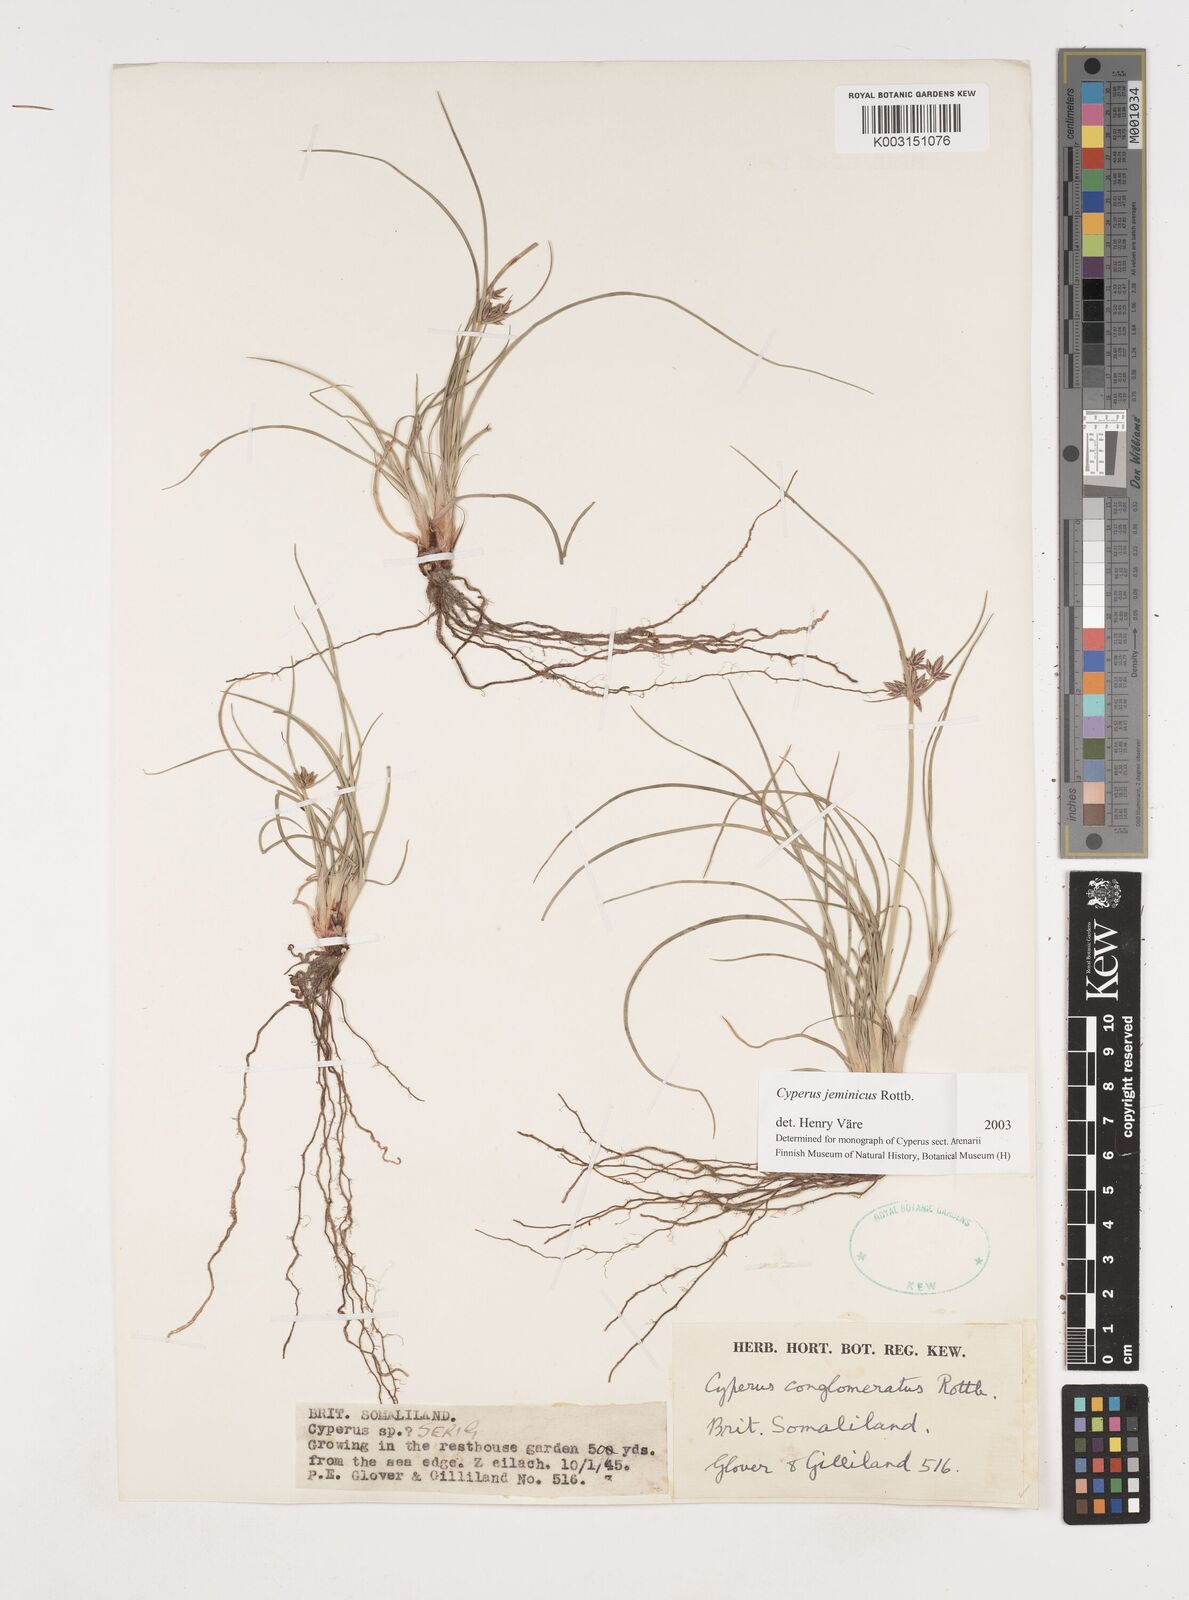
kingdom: Plantae
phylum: Tracheophyta
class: Liliopsida
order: Poales
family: Cyperaceae
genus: Cyperus
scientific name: Cyperus jeminicus
